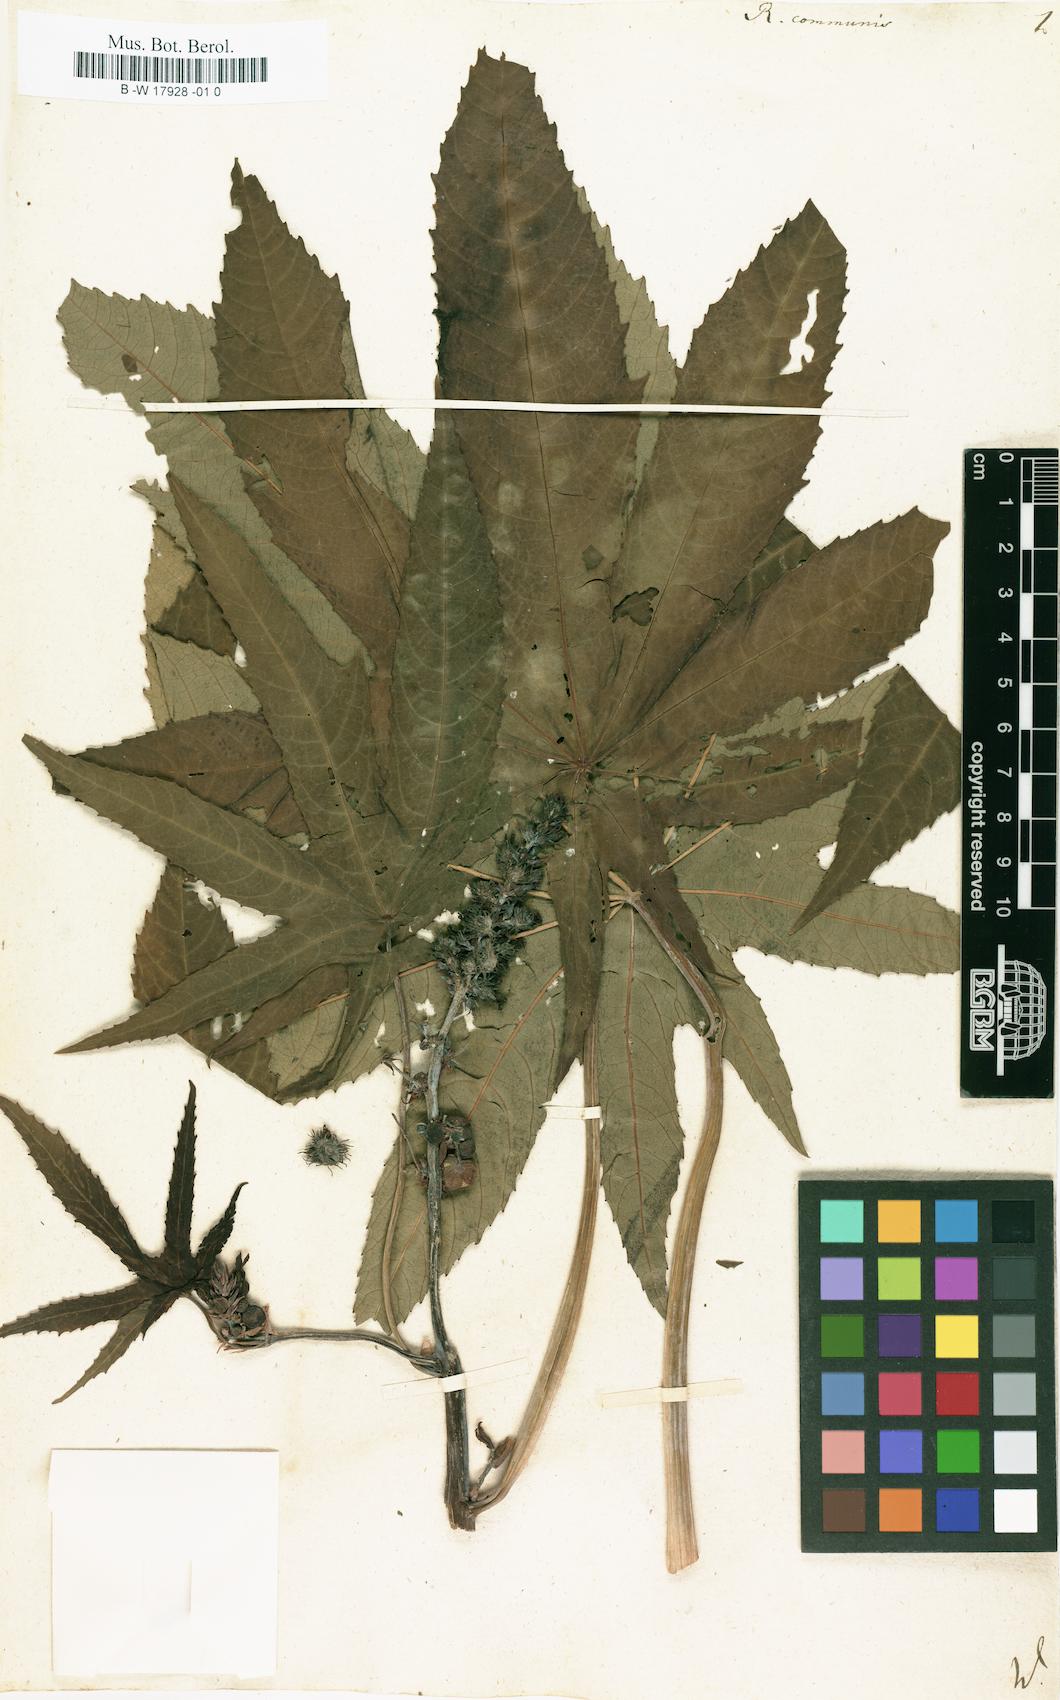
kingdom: Plantae
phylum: Tracheophyta
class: Magnoliopsida
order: Malpighiales
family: Euphorbiaceae
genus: Ricinus
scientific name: Ricinus communis
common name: Castor-oil-plant
